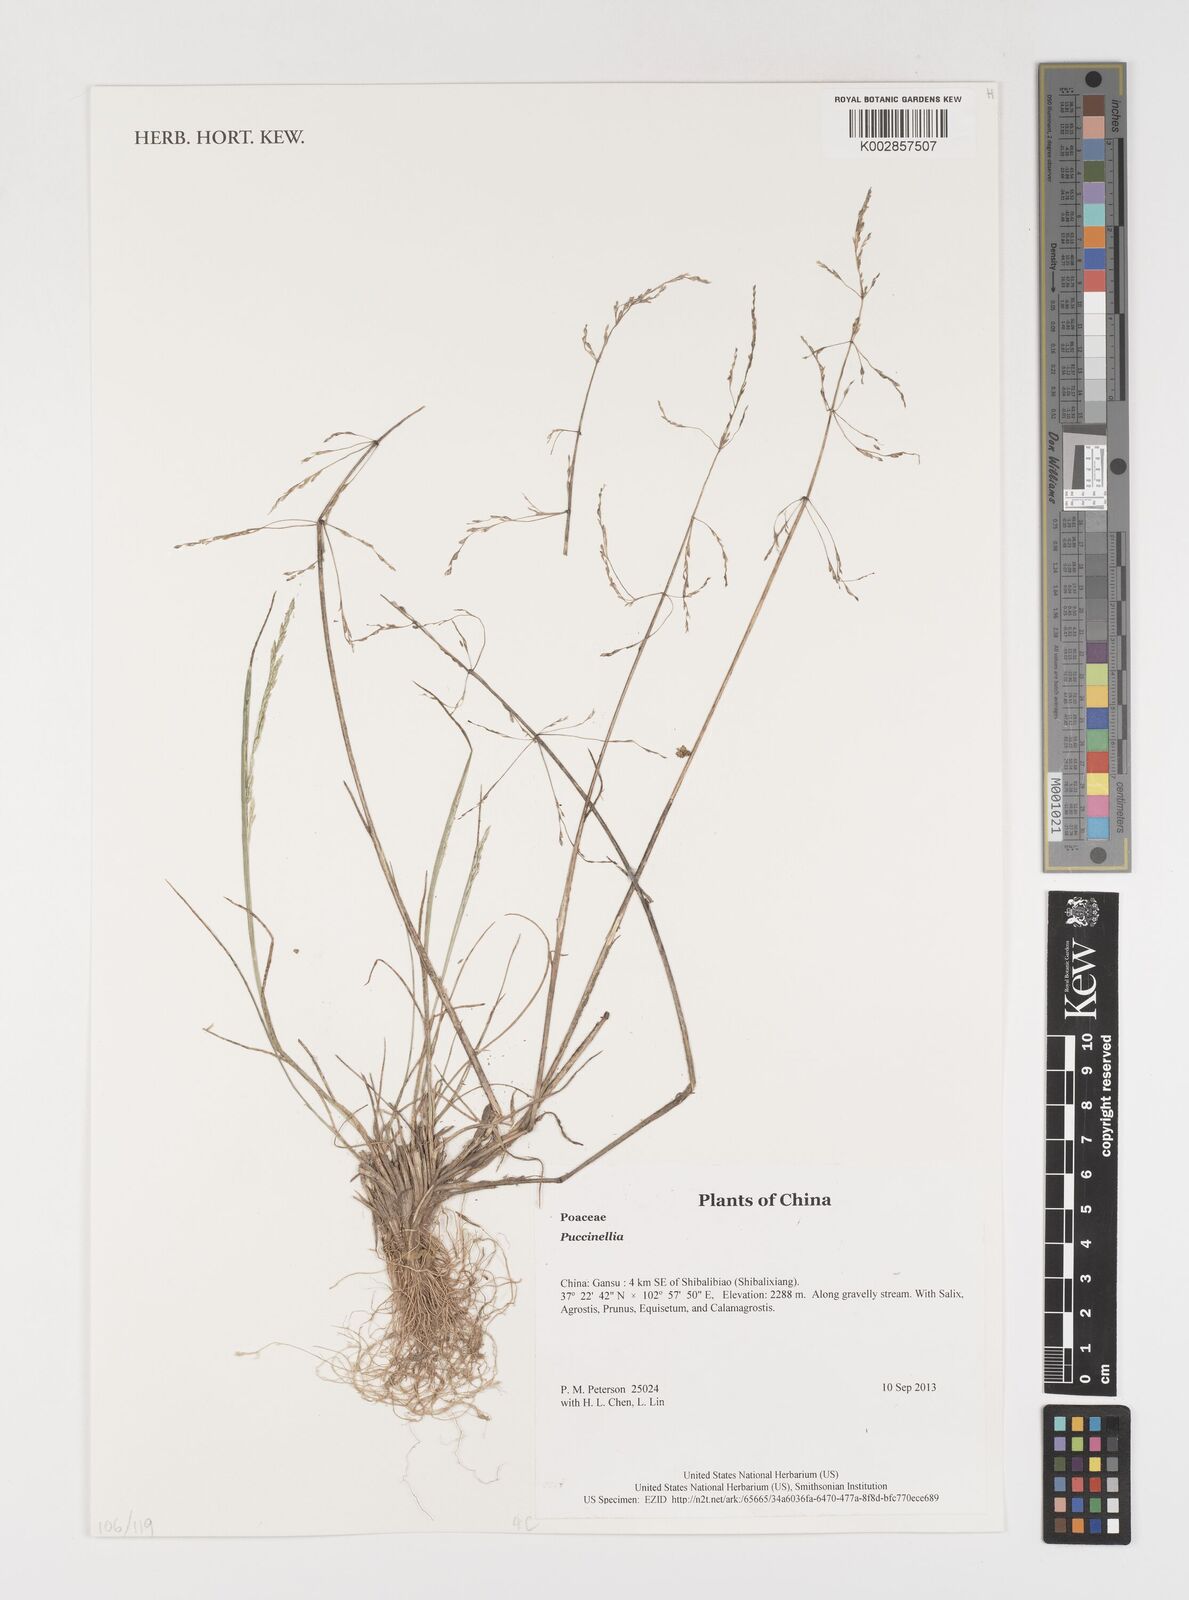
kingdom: Plantae
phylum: Tracheophyta
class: Liliopsida
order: Poales
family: Poaceae
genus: Puccinellia
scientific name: Puccinellia
